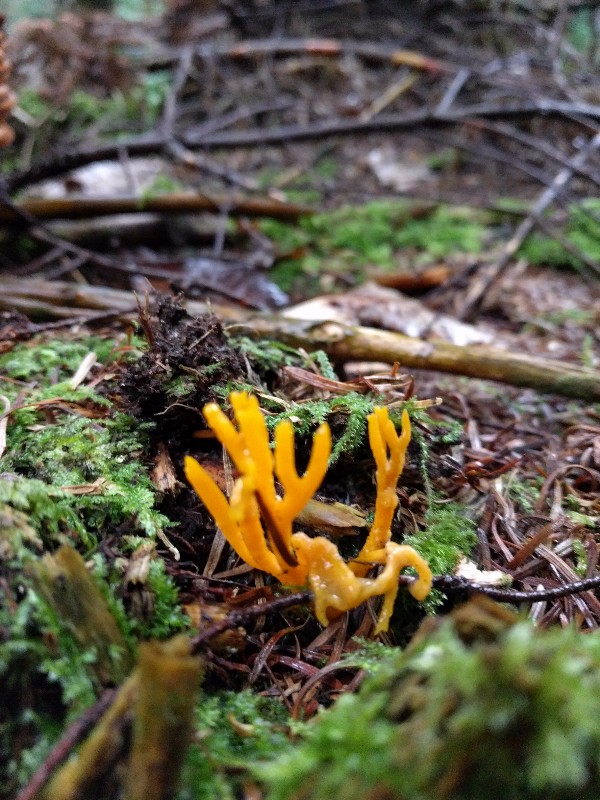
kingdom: Fungi
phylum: Basidiomycota
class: Dacrymycetes
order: Dacrymycetales
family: Dacrymycetaceae
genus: Calocera
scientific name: Calocera viscosa
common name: almindelig guldgaffel
